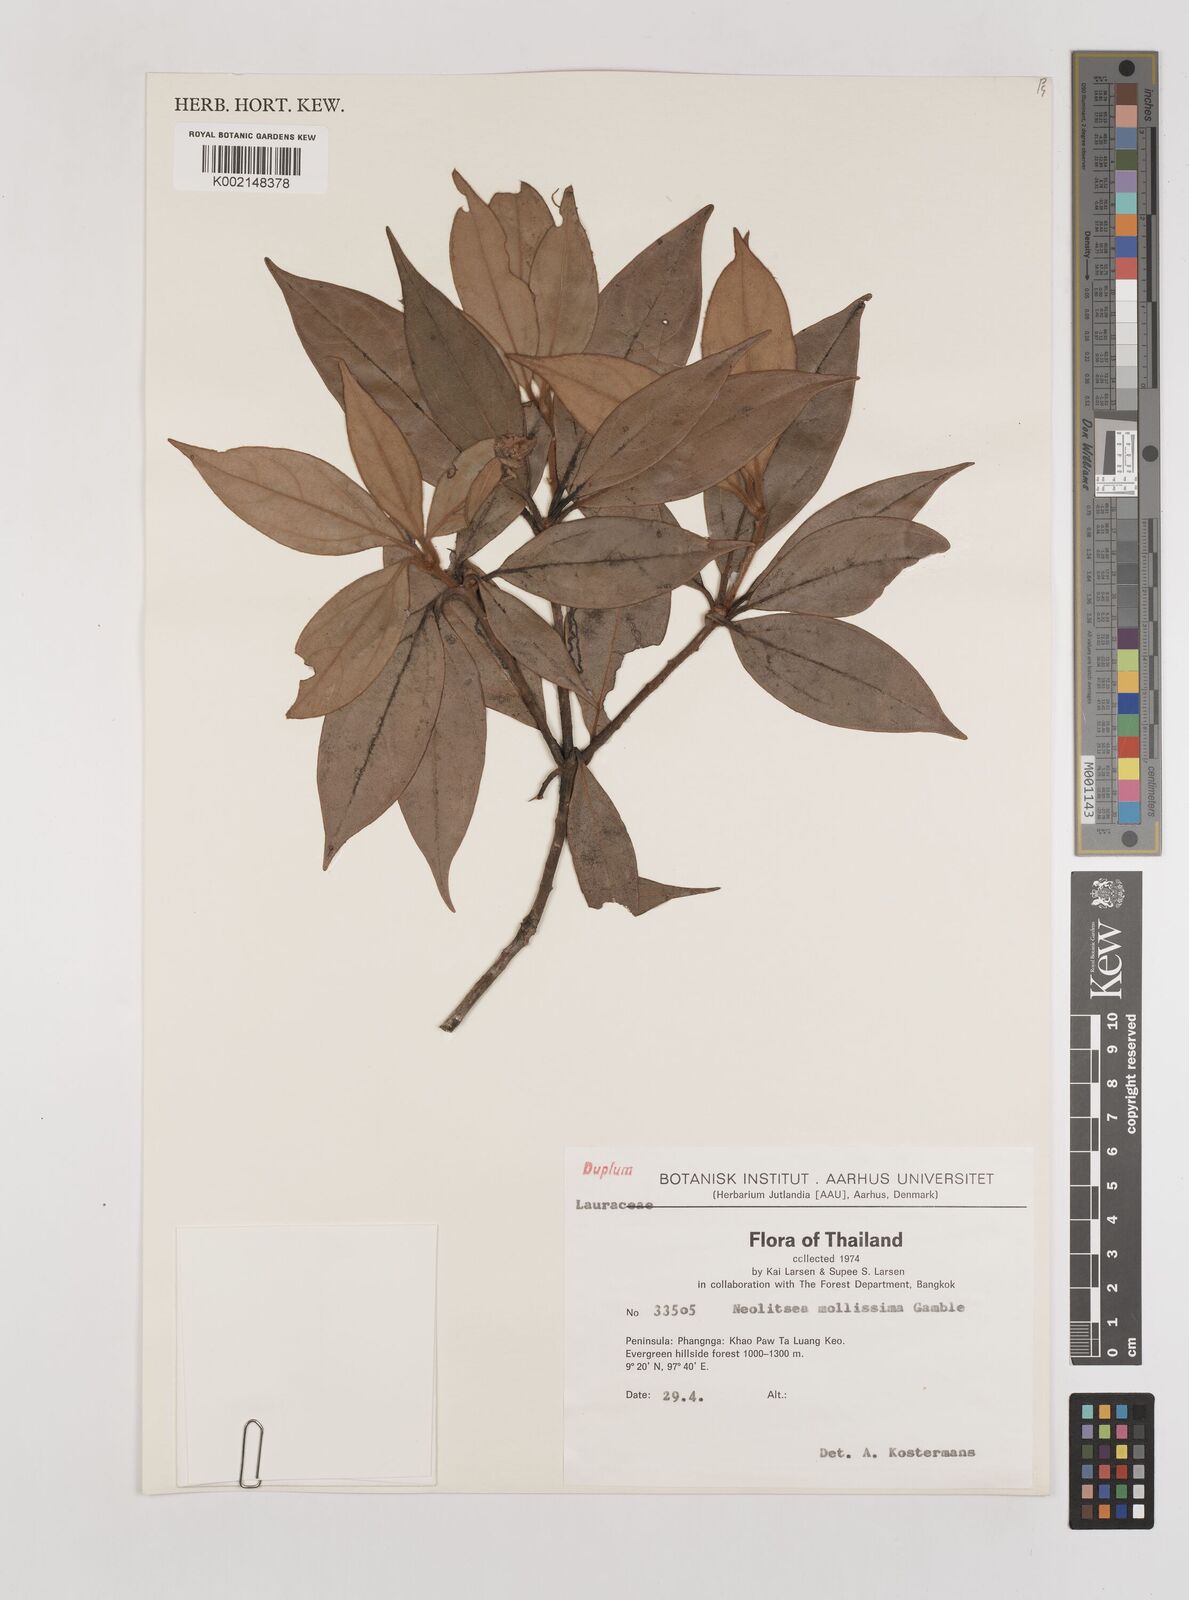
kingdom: Plantae
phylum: Tracheophyta
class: Magnoliopsida
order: Laurales
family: Lauraceae
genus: Neolitsea
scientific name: Neolitsea mollissima
